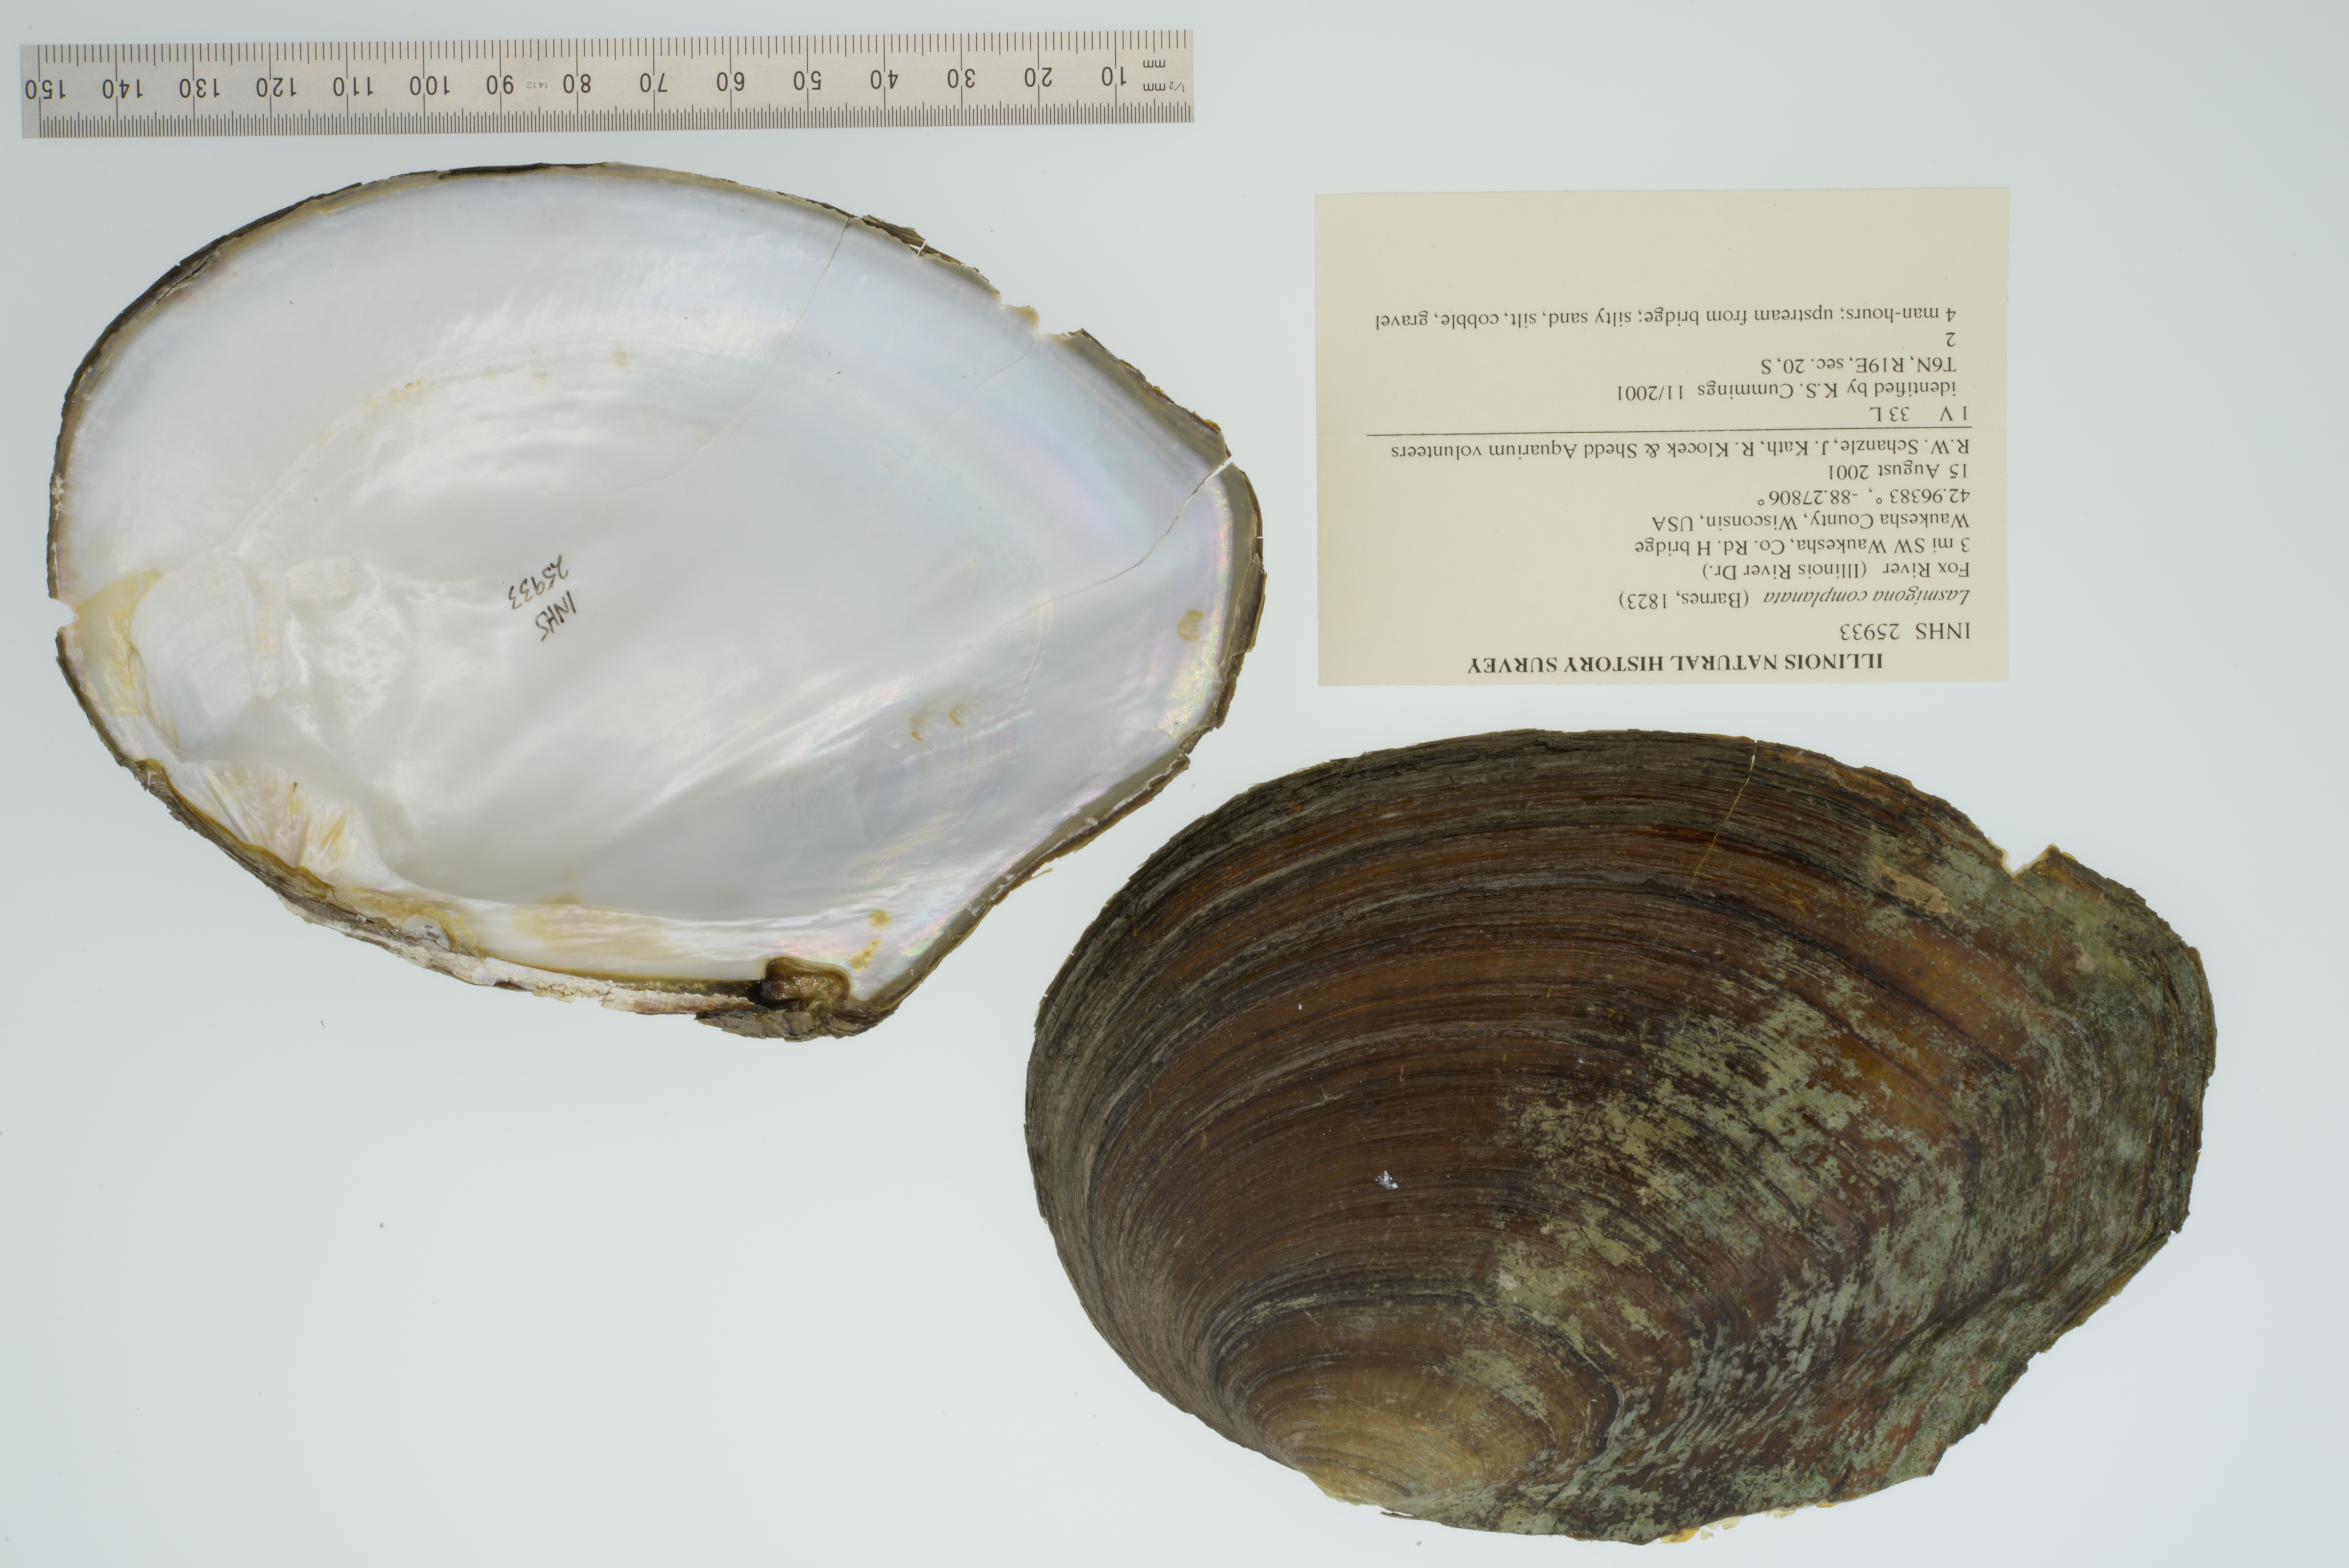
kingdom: Animalia
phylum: Mollusca
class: Bivalvia
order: Unionida
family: Unionidae
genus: Lasmigona
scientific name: Lasmigona complanata
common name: White heelsplitter
